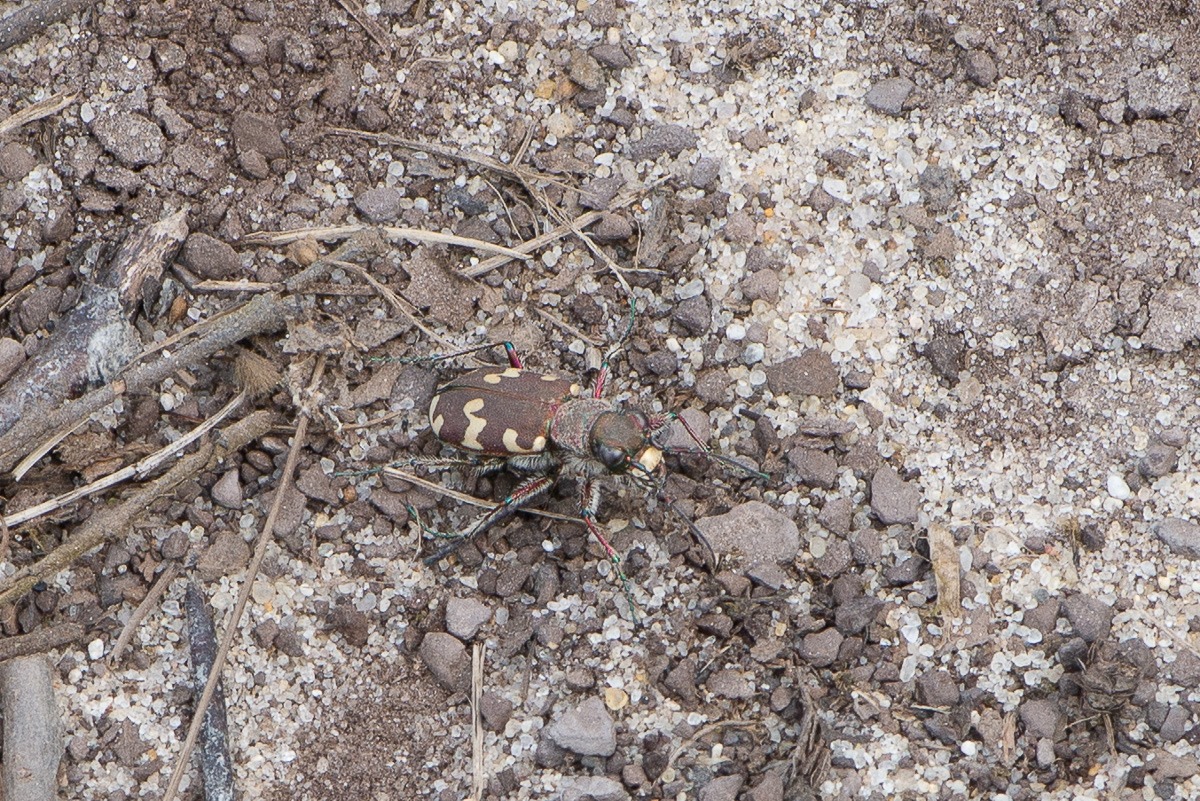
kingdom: Animalia
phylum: Arthropoda
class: Insecta
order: Coleoptera
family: Carabidae
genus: Cicindela
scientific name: Cicindela hybrida
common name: Brun sandspringer
